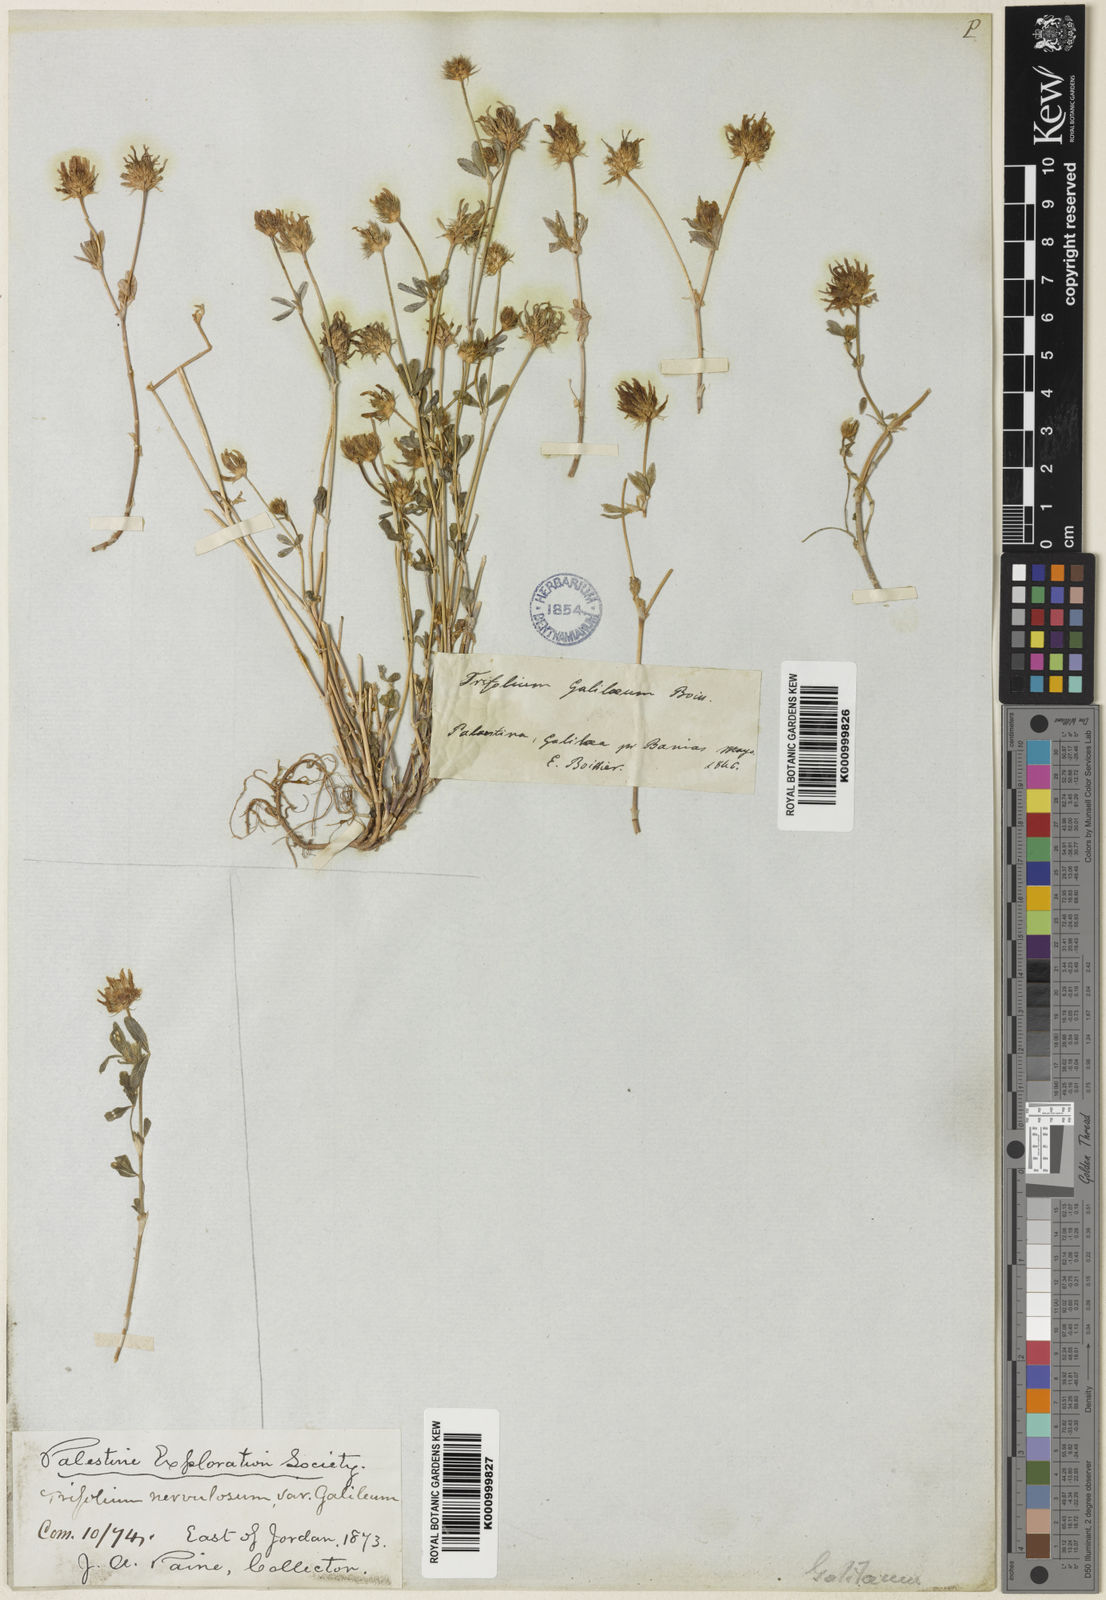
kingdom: Plantae
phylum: Tracheophyta
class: Magnoliopsida
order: Fabales
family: Fabaceae
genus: Trifolium
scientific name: Trifolium glanduliferum
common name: Glandular clover
